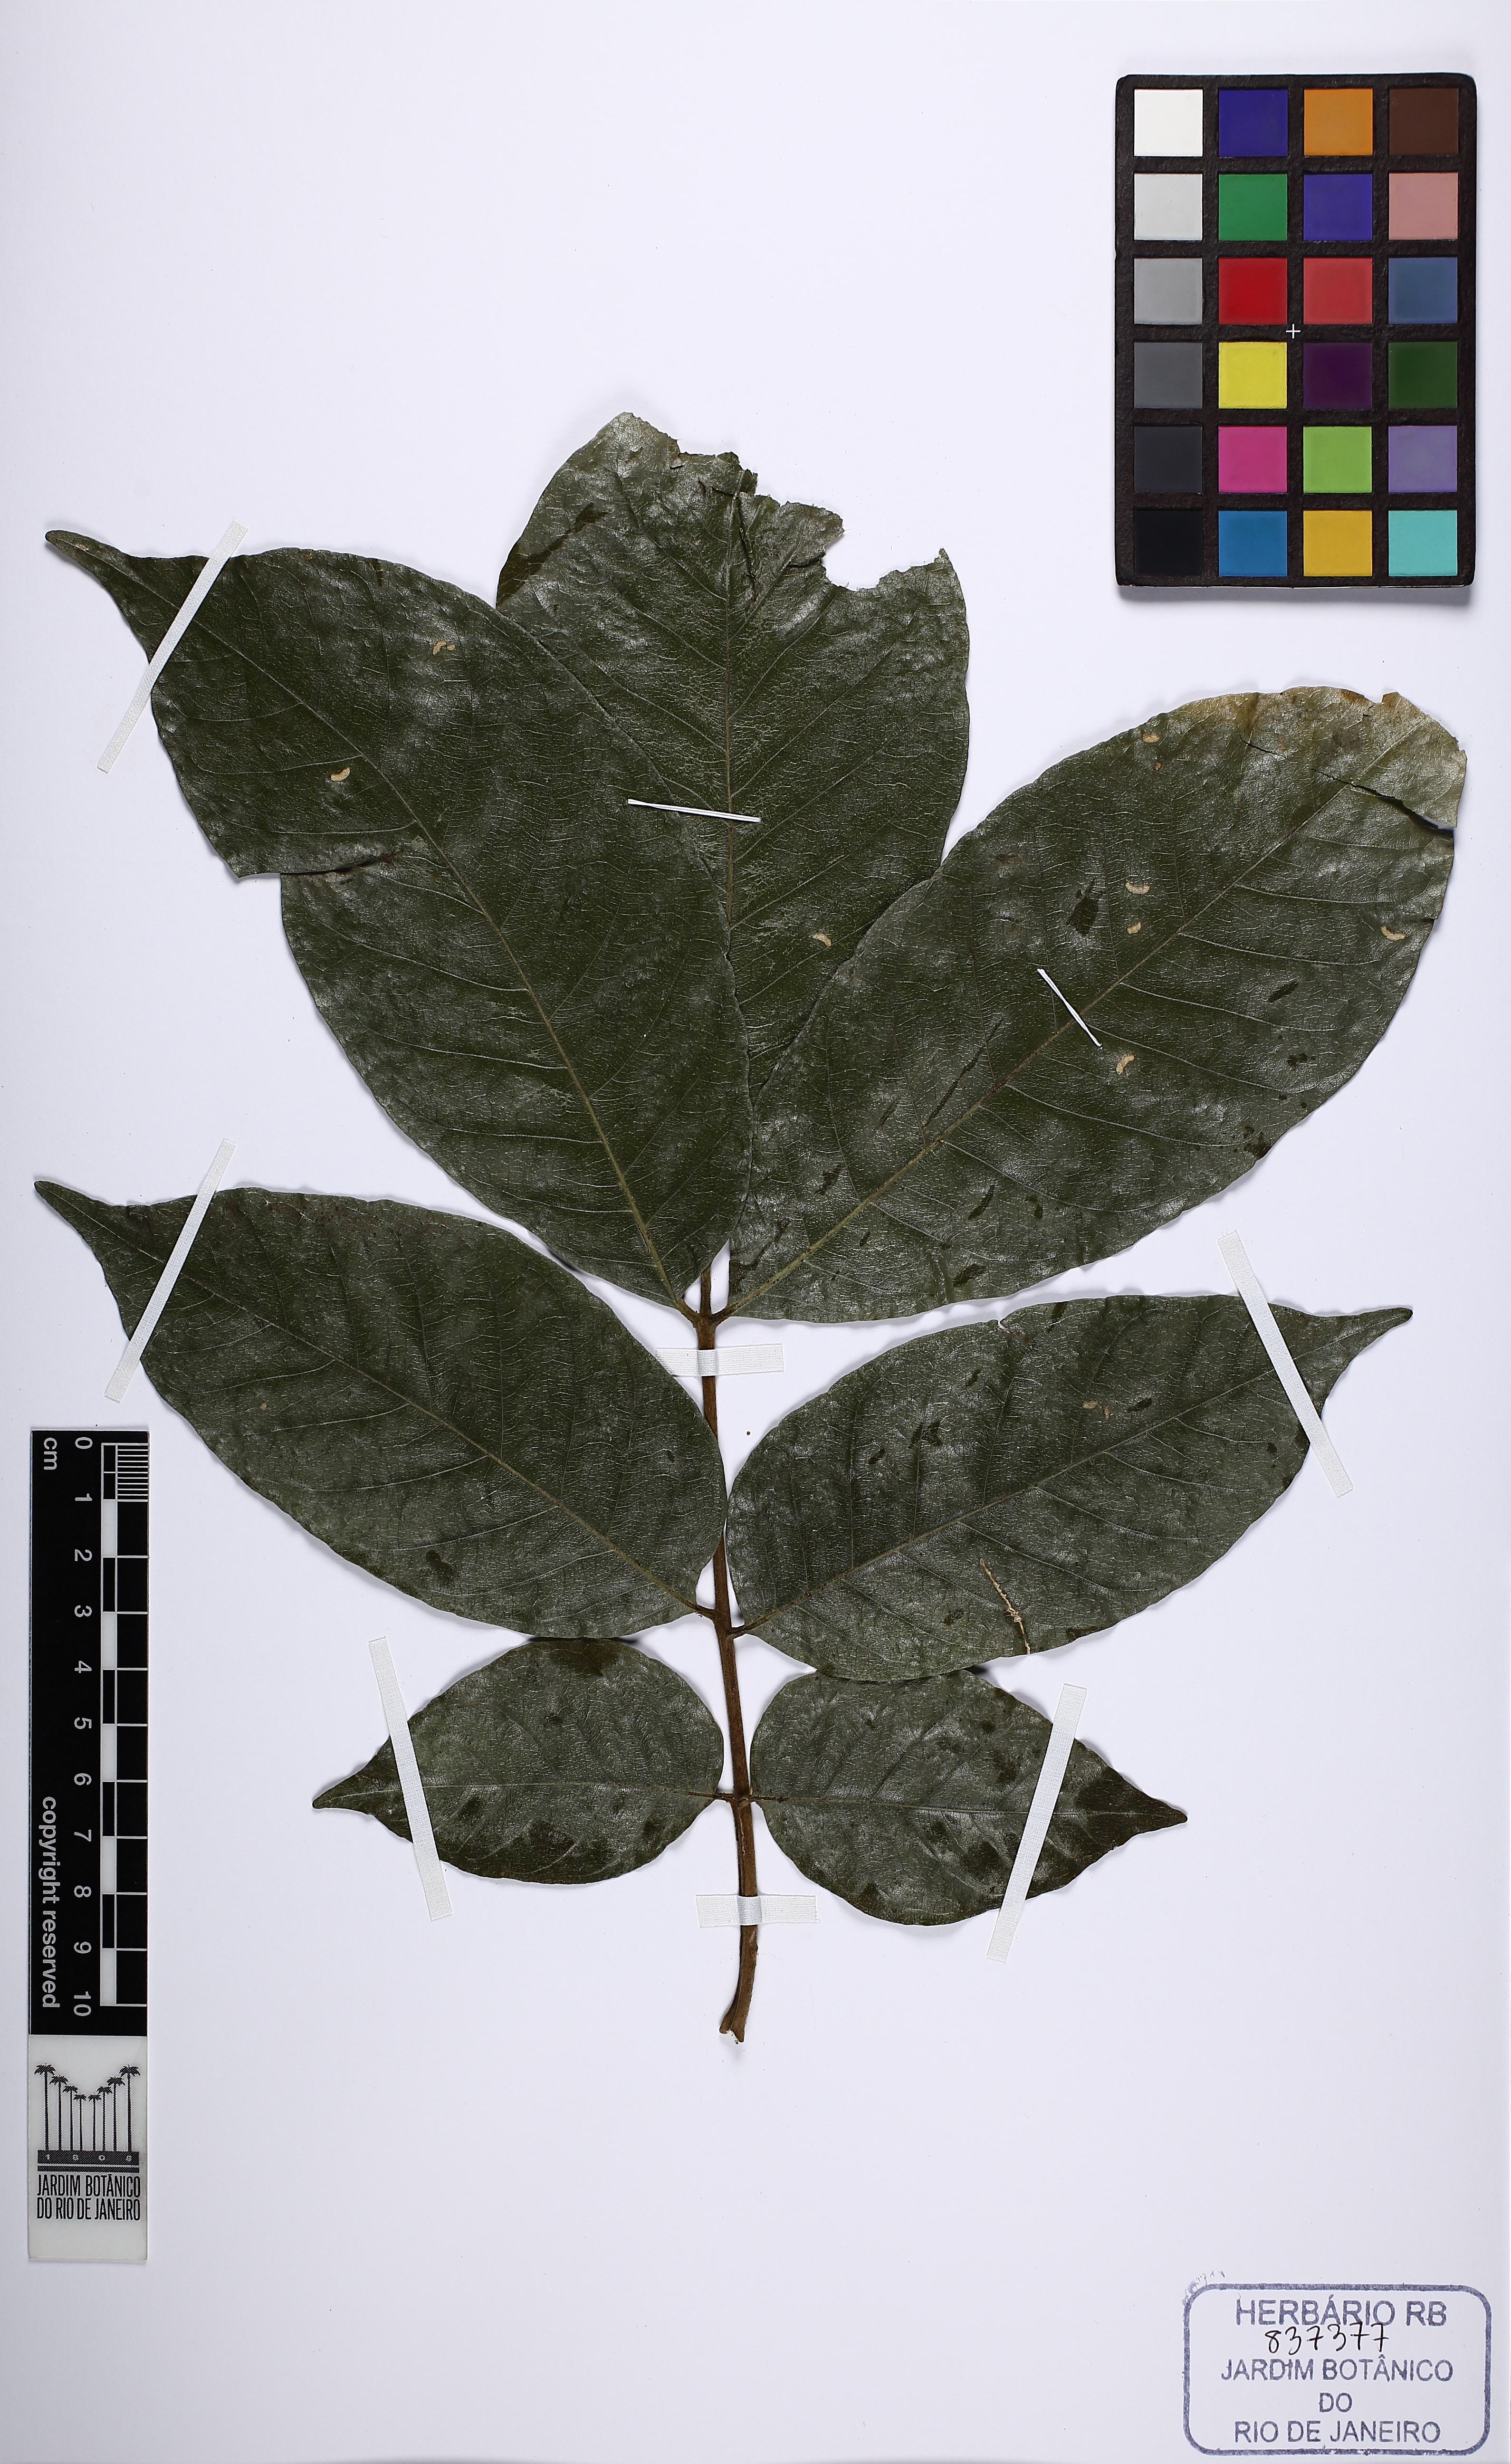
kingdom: Plantae
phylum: Tracheophyta
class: Magnoliopsida
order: Sapindales
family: Meliaceae
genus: Trichilia
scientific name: Trichilia pallida
